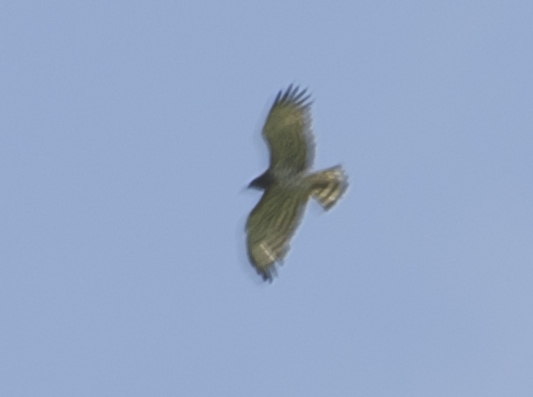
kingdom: Animalia
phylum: Chordata
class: Aves
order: Accipitriformes
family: Accipitridae
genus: Circaetus
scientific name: Circaetus gallicus
